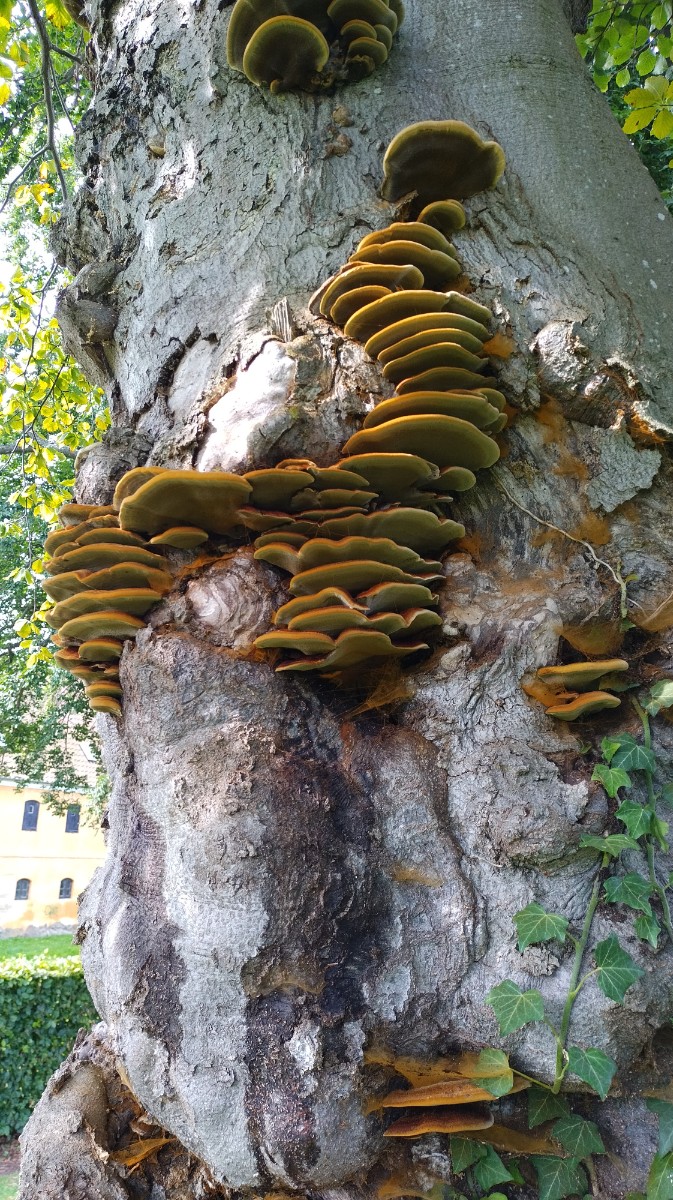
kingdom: Fungi
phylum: Basidiomycota
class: Agaricomycetes
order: Hymenochaetales
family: Hymenochaetaceae
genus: Inonotus
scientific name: Inonotus cuticularis
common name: kroghåret spejlporesvamp
